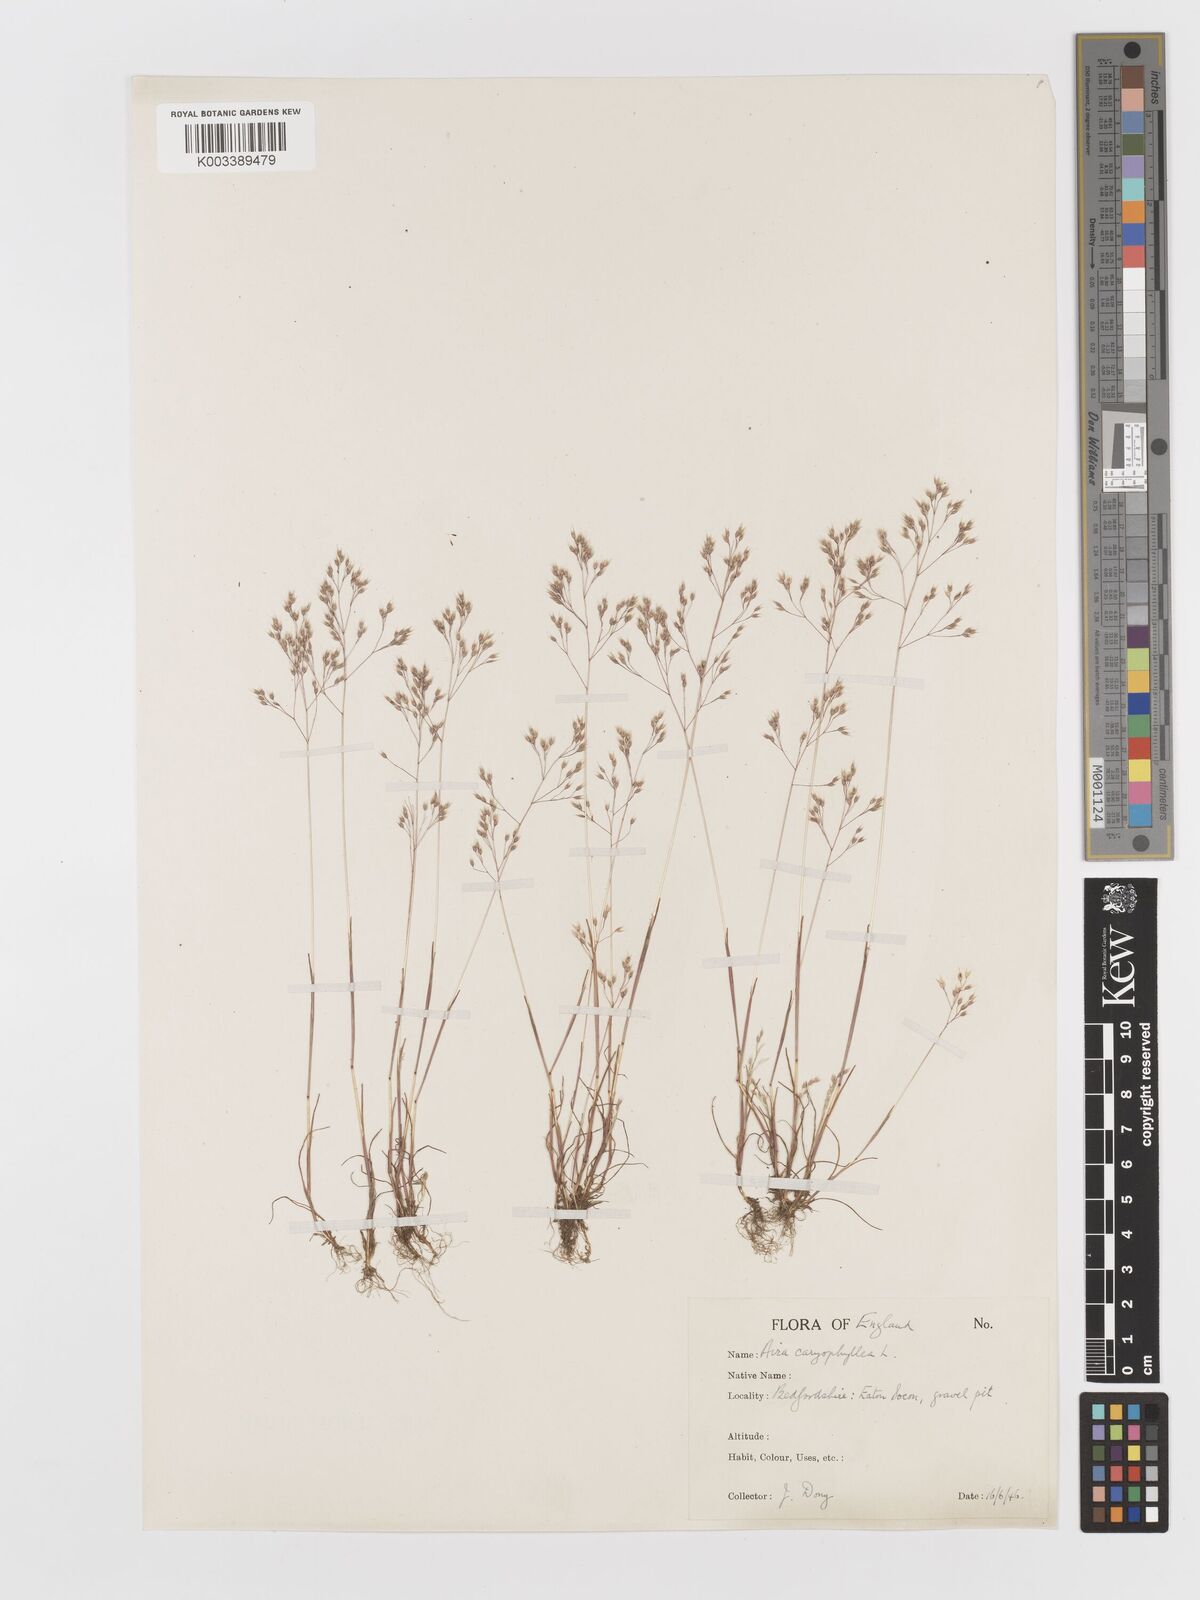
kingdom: Plantae
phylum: Tracheophyta
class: Liliopsida
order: Poales
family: Poaceae
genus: Aira
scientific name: Aira caryophyllea
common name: Silver hairgrass
